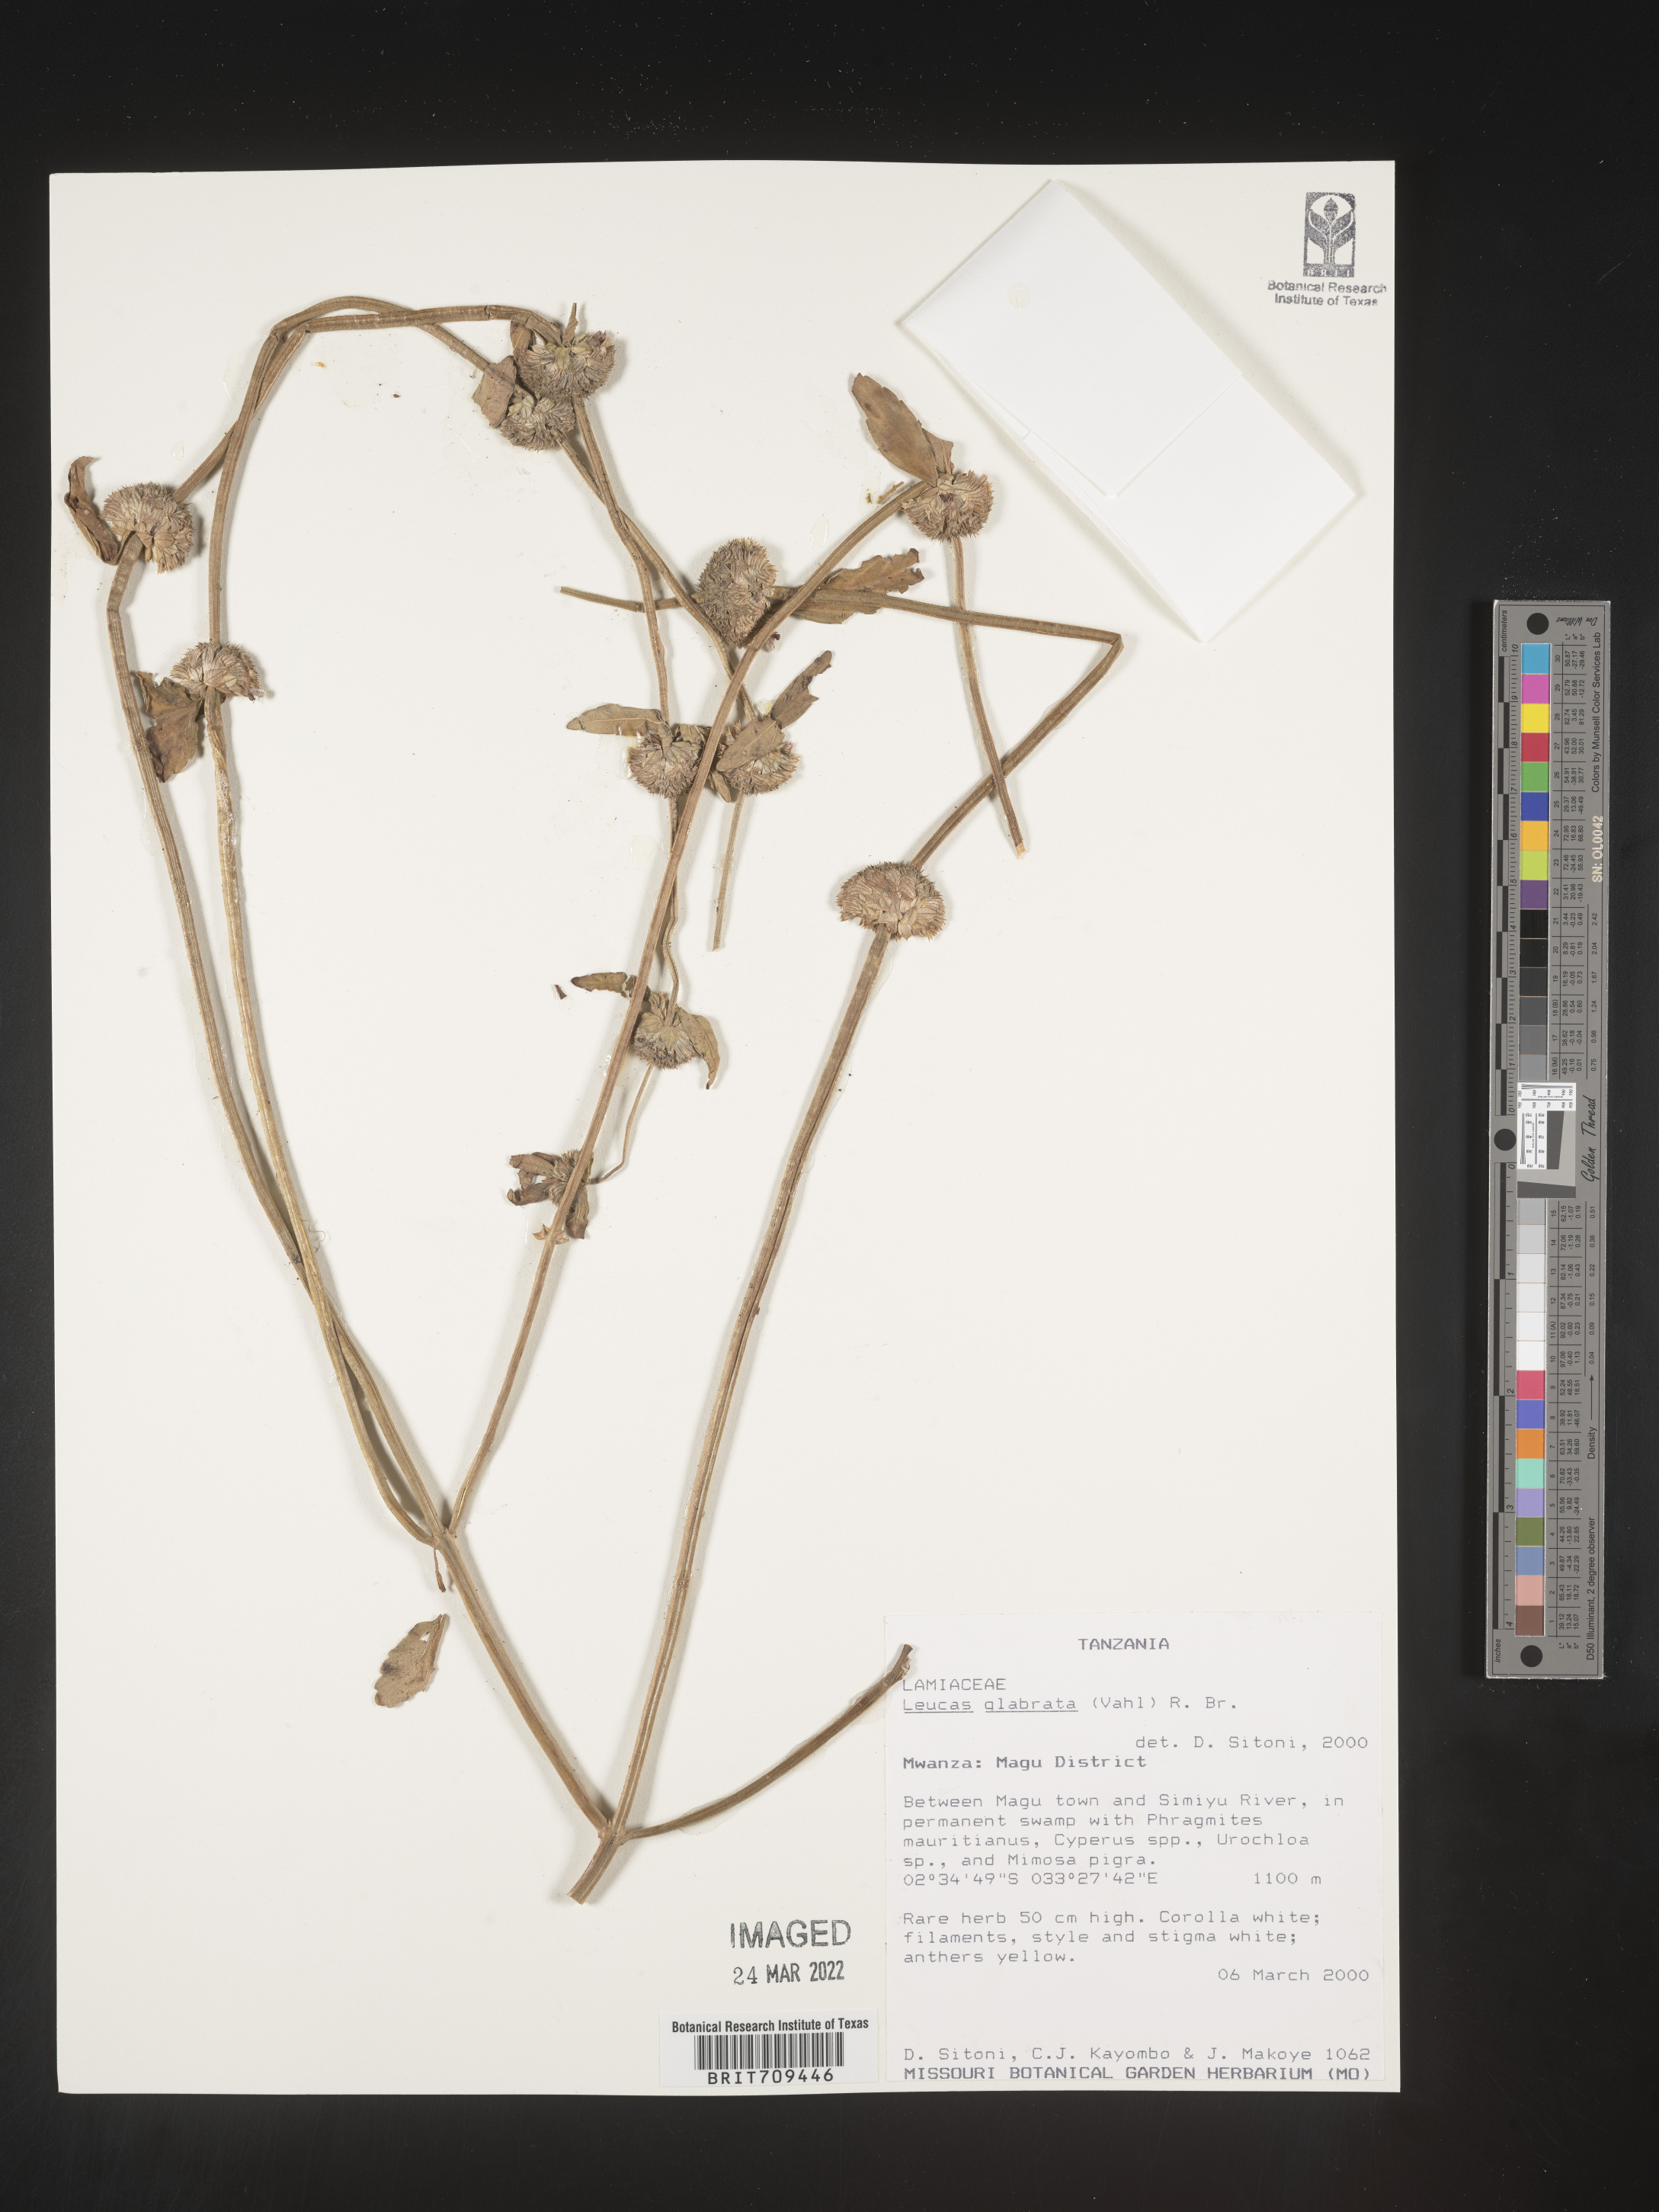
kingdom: Plantae
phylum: Tracheophyta
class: Magnoliopsida
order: Lamiales
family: Lamiaceae
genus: Leucas
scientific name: Leucas
